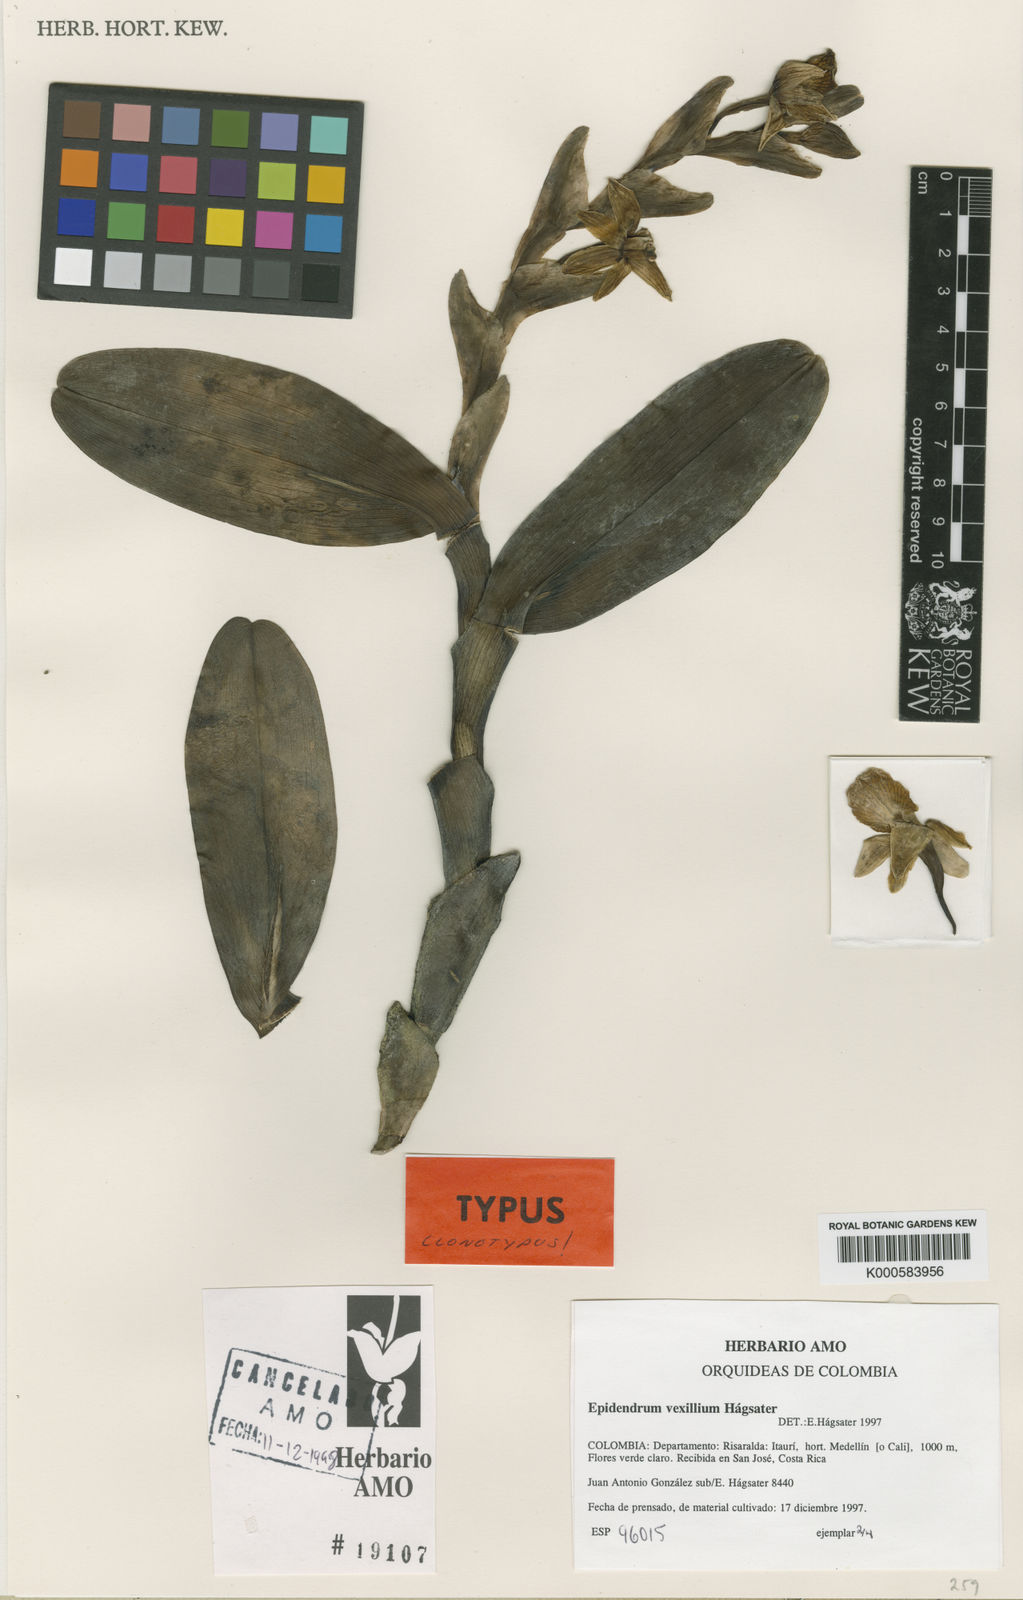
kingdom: Plantae
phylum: Tracheophyta
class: Liliopsida
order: Asparagales
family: Orchidaceae
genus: Epidendrum
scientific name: Epidendrum
